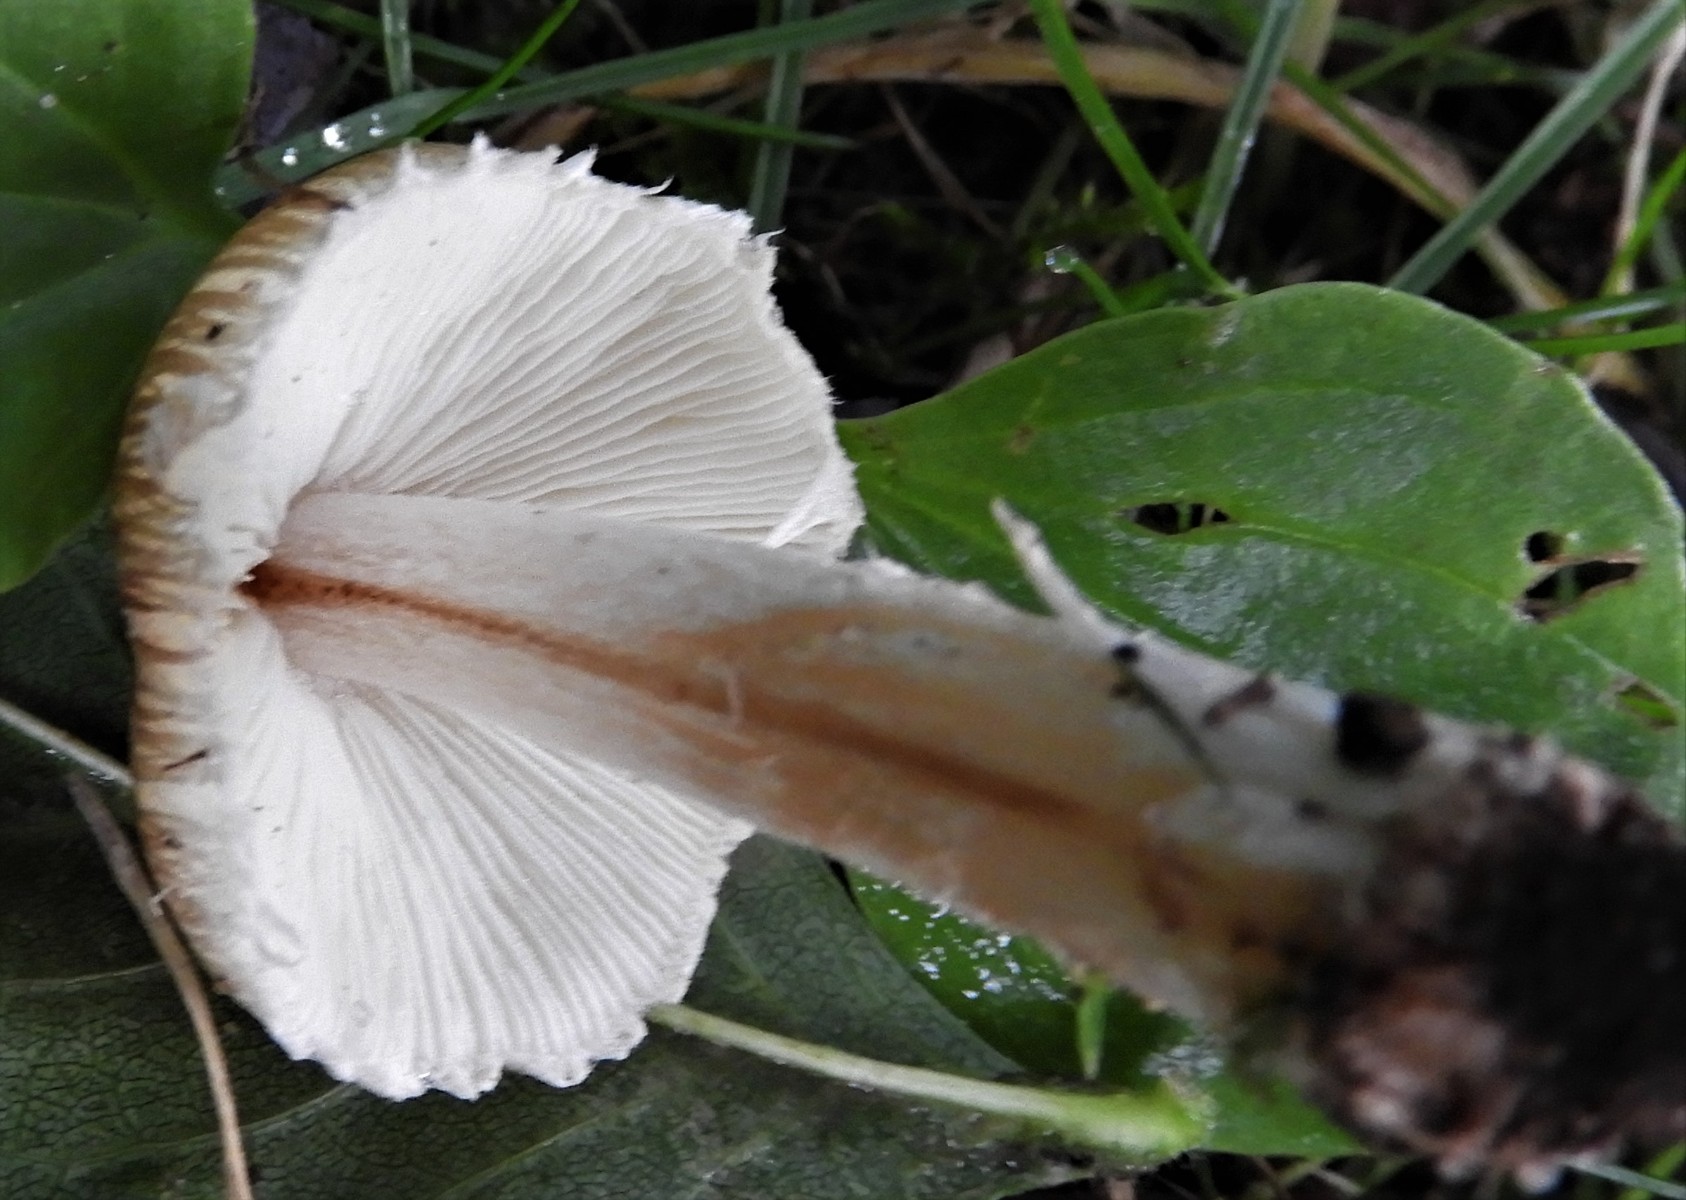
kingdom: Fungi
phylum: Basidiomycota
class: Agaricomycetes
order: Agaricales
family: Inocybaceae
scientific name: Inocybaceae
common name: trævlhatfamilien
